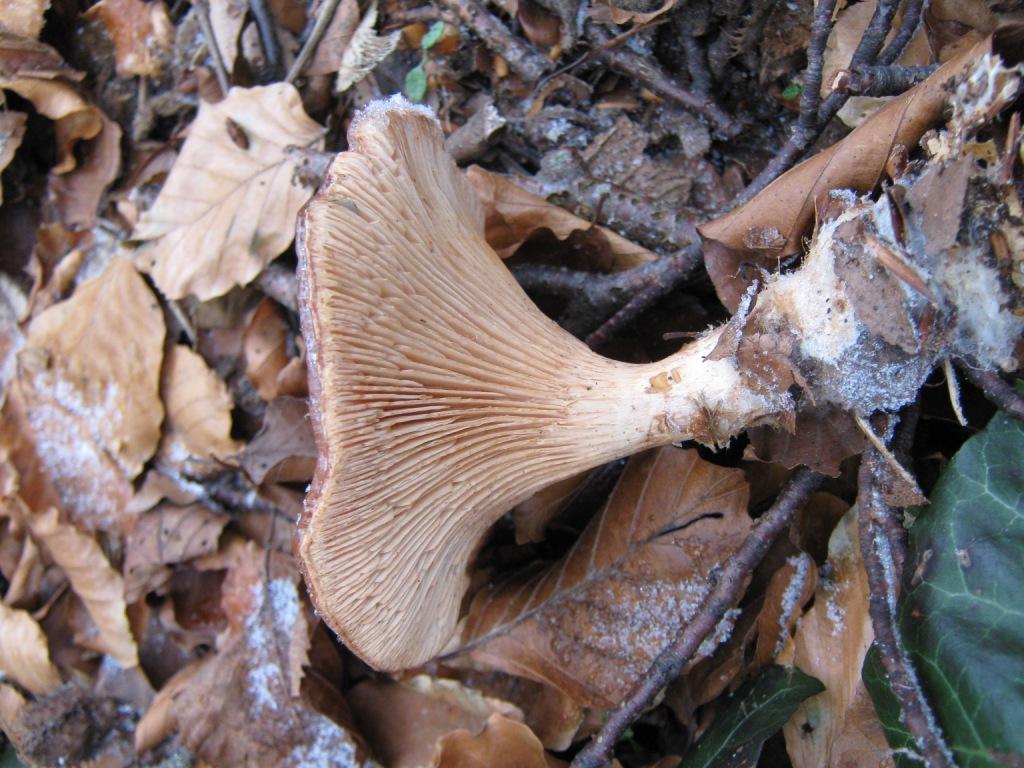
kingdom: Fungi
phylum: Basidiomycota
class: Agaricomycetes
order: Agaricales
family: Tricholomataceae
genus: Paralepista
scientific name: Paralepista flaccida
